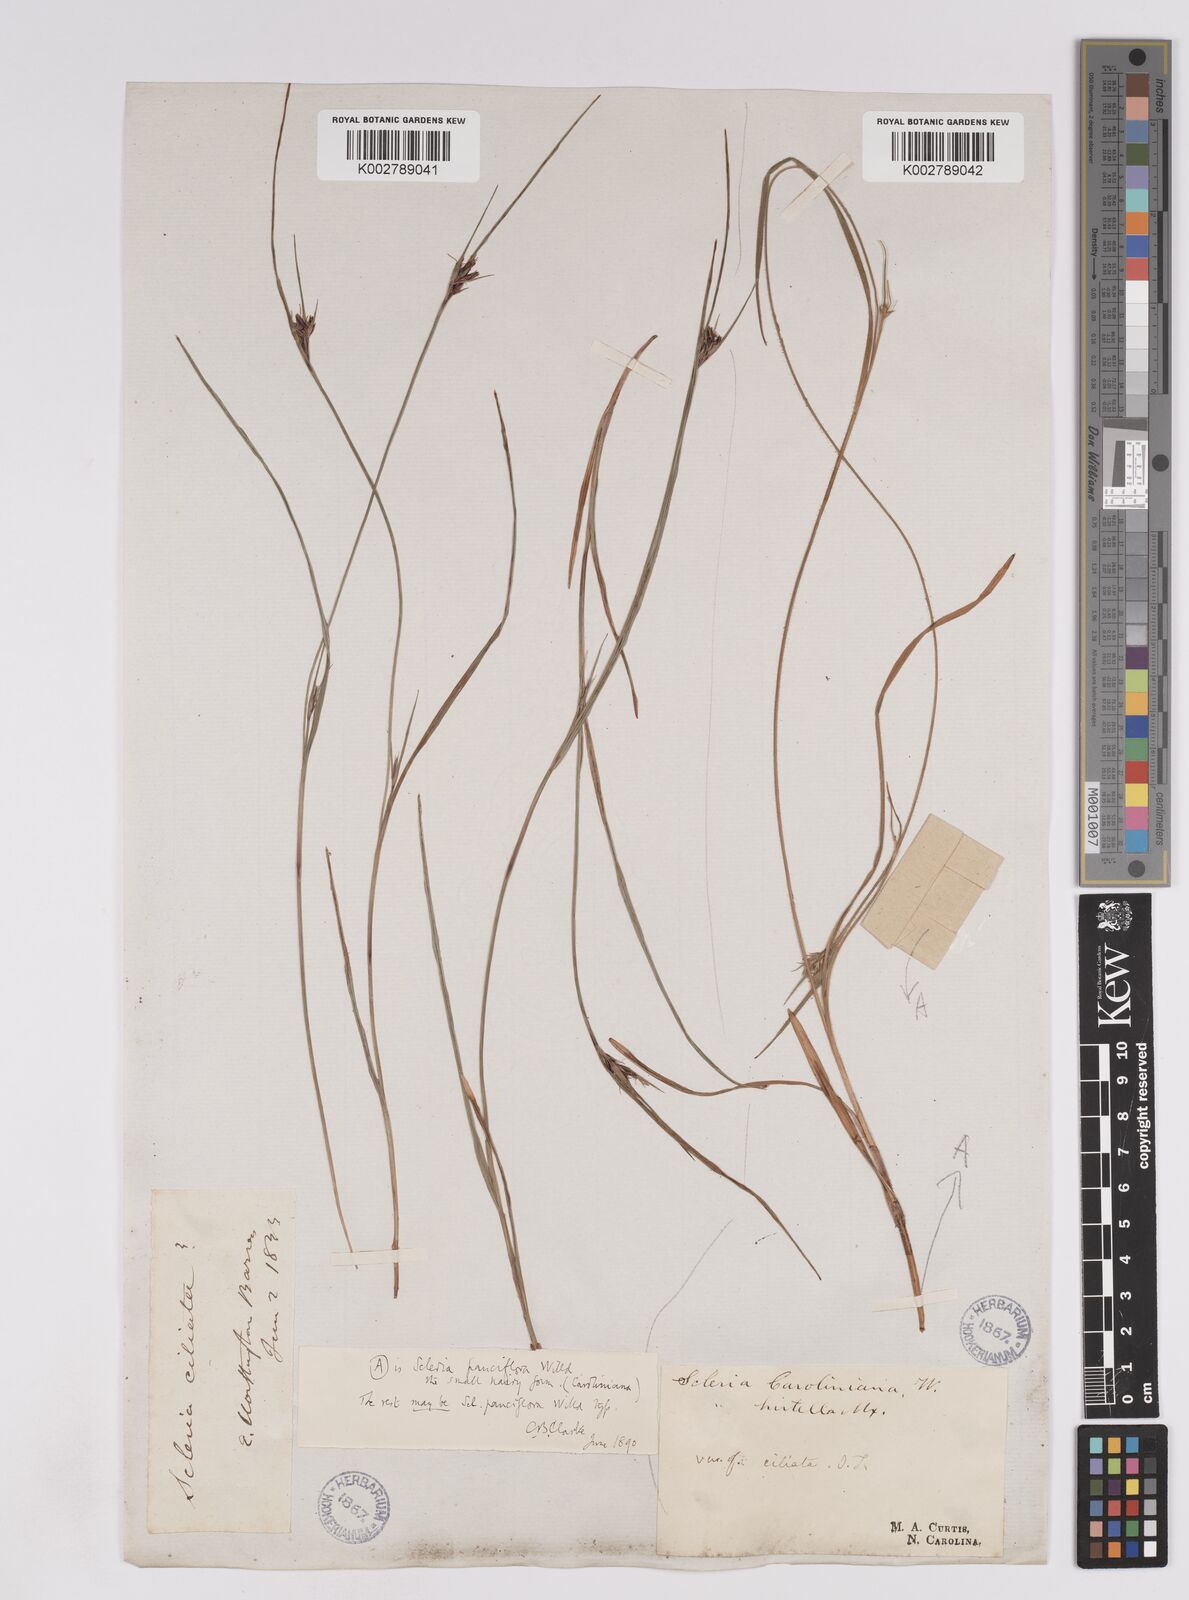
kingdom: Plantae
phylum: Tracheophyta
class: Liliopsida
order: Poales
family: Cyperaceae
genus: Scleria
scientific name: Scleria pauciflora
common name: Few-flowered nutrush
